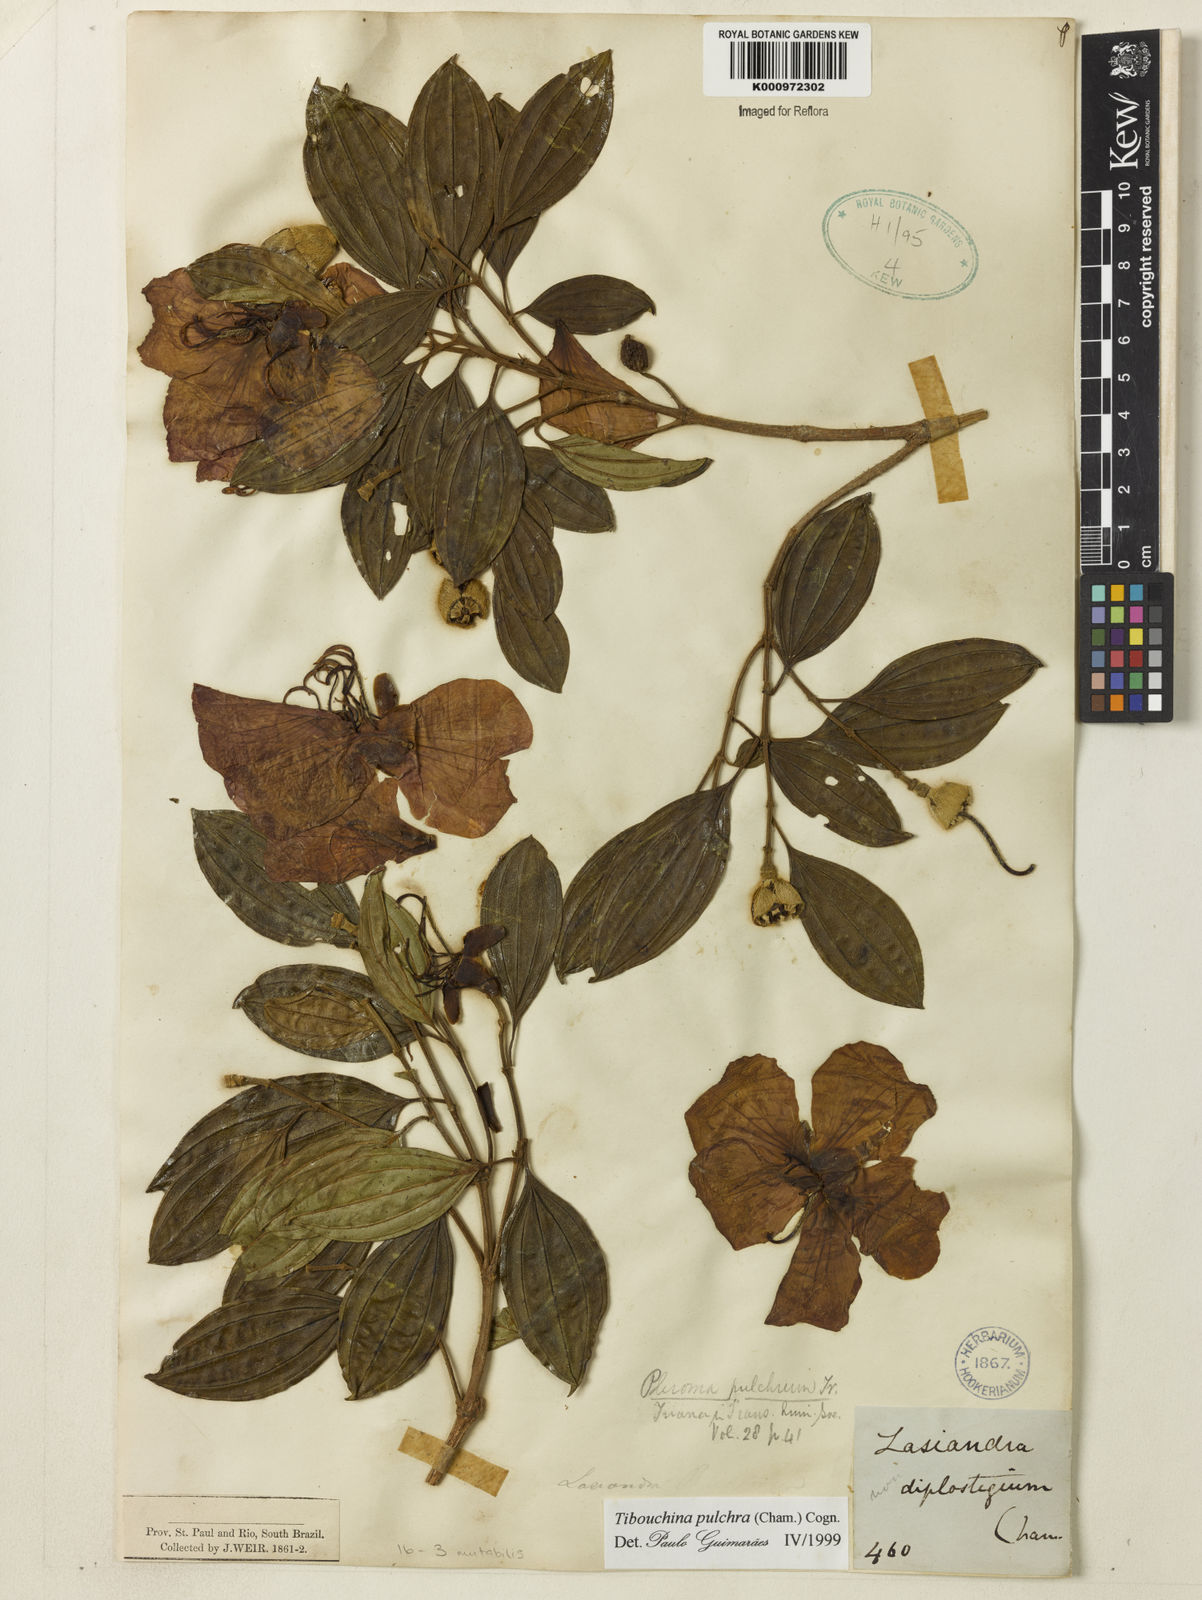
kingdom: Plantae
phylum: Tracheophyta
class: Magnoliopsida
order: Myrtales
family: Melastomataceae
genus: Pleroma
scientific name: Pleroma raddianum
